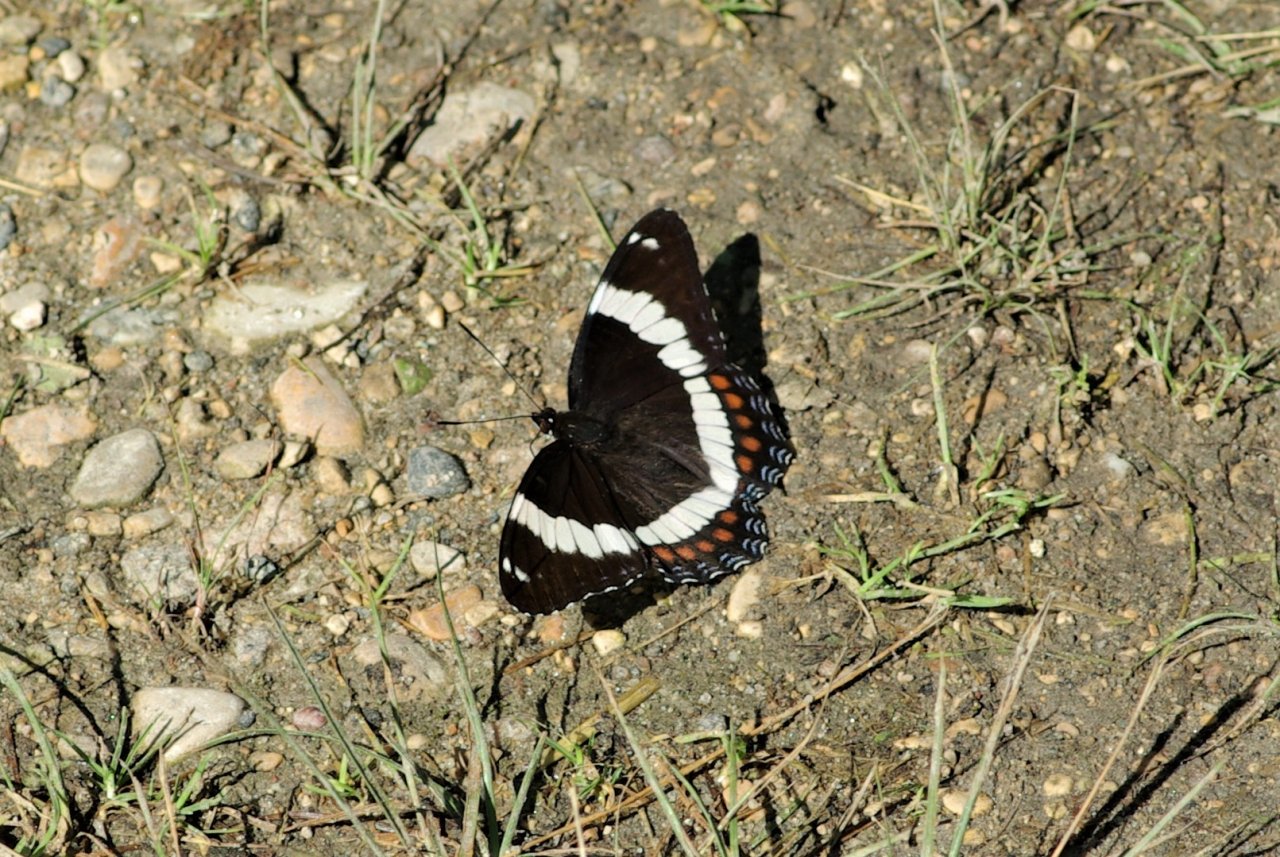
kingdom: Animalia
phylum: Arthropoda
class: Insecta
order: Lepidoptera
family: Nymphalidae
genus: Limenitis
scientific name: Limenitis arthemis
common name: Red-spotted Admiral
